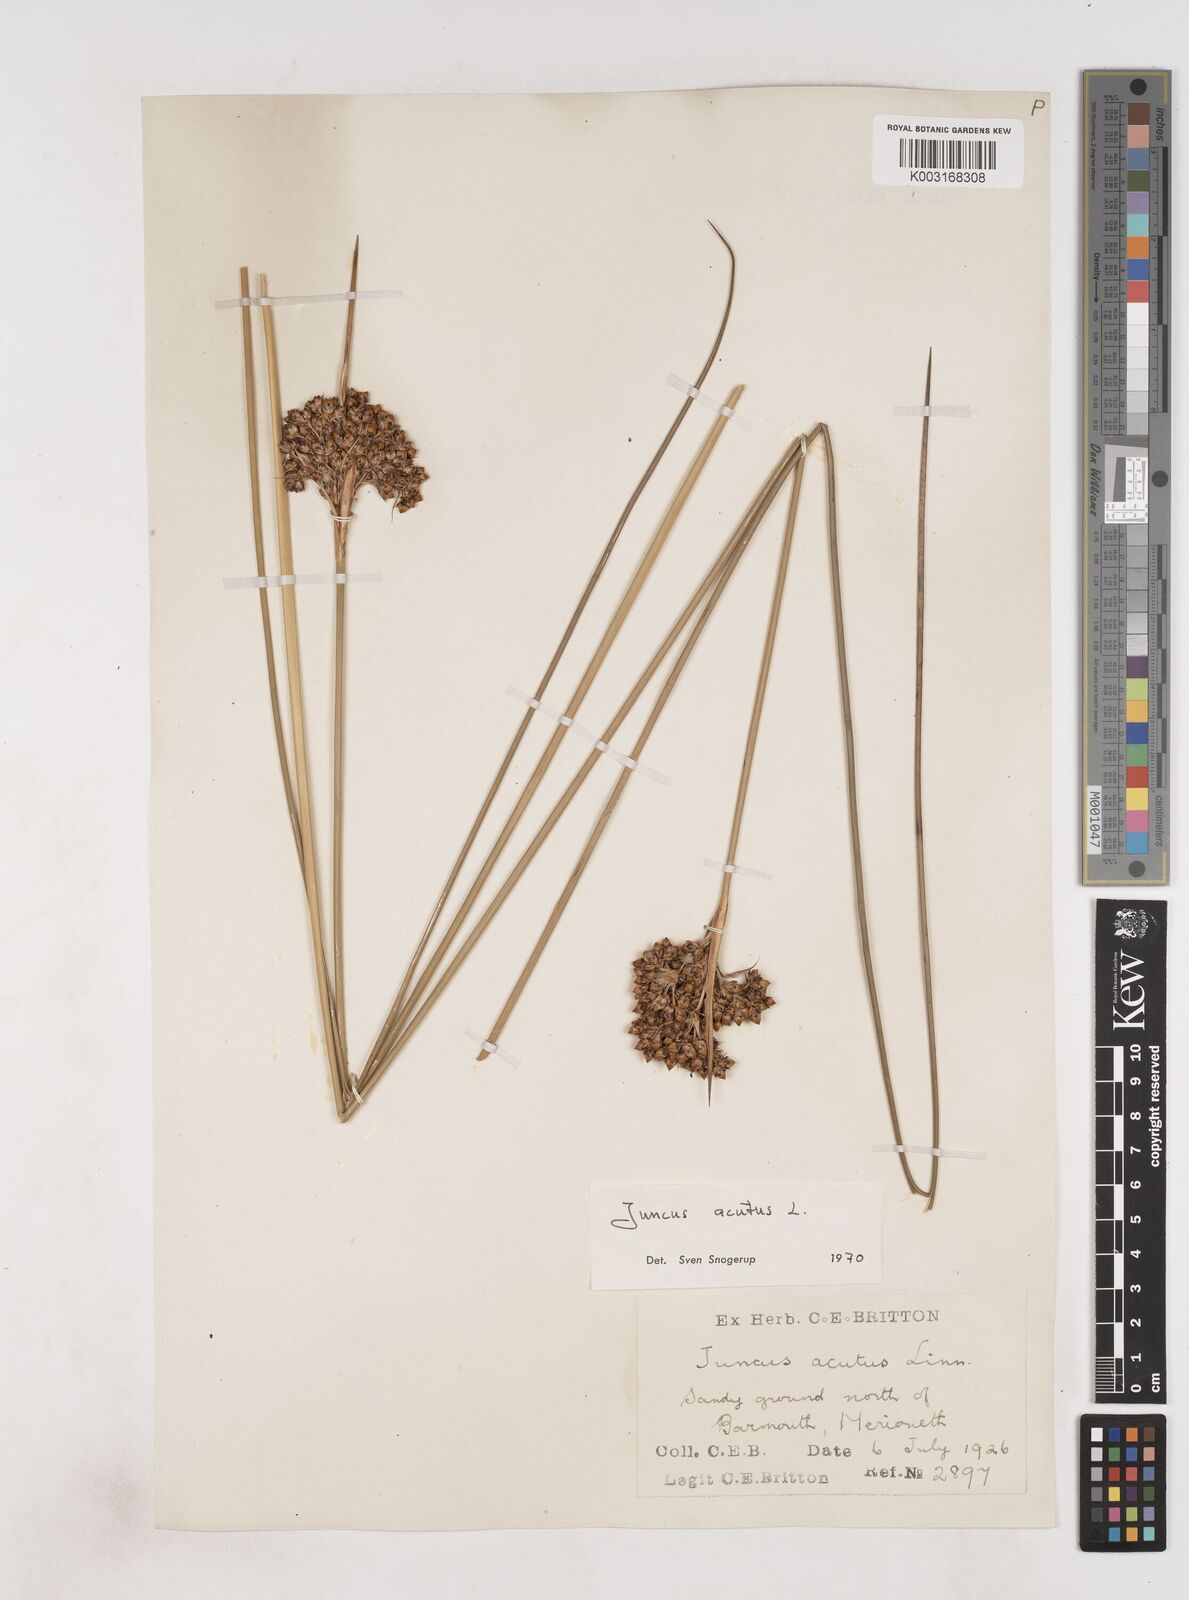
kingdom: Plantae
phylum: Tracheophyta
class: Liliopsida
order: Poales
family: Juncaceae
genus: Juncus
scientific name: Juncus acutus
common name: Sharp rush
